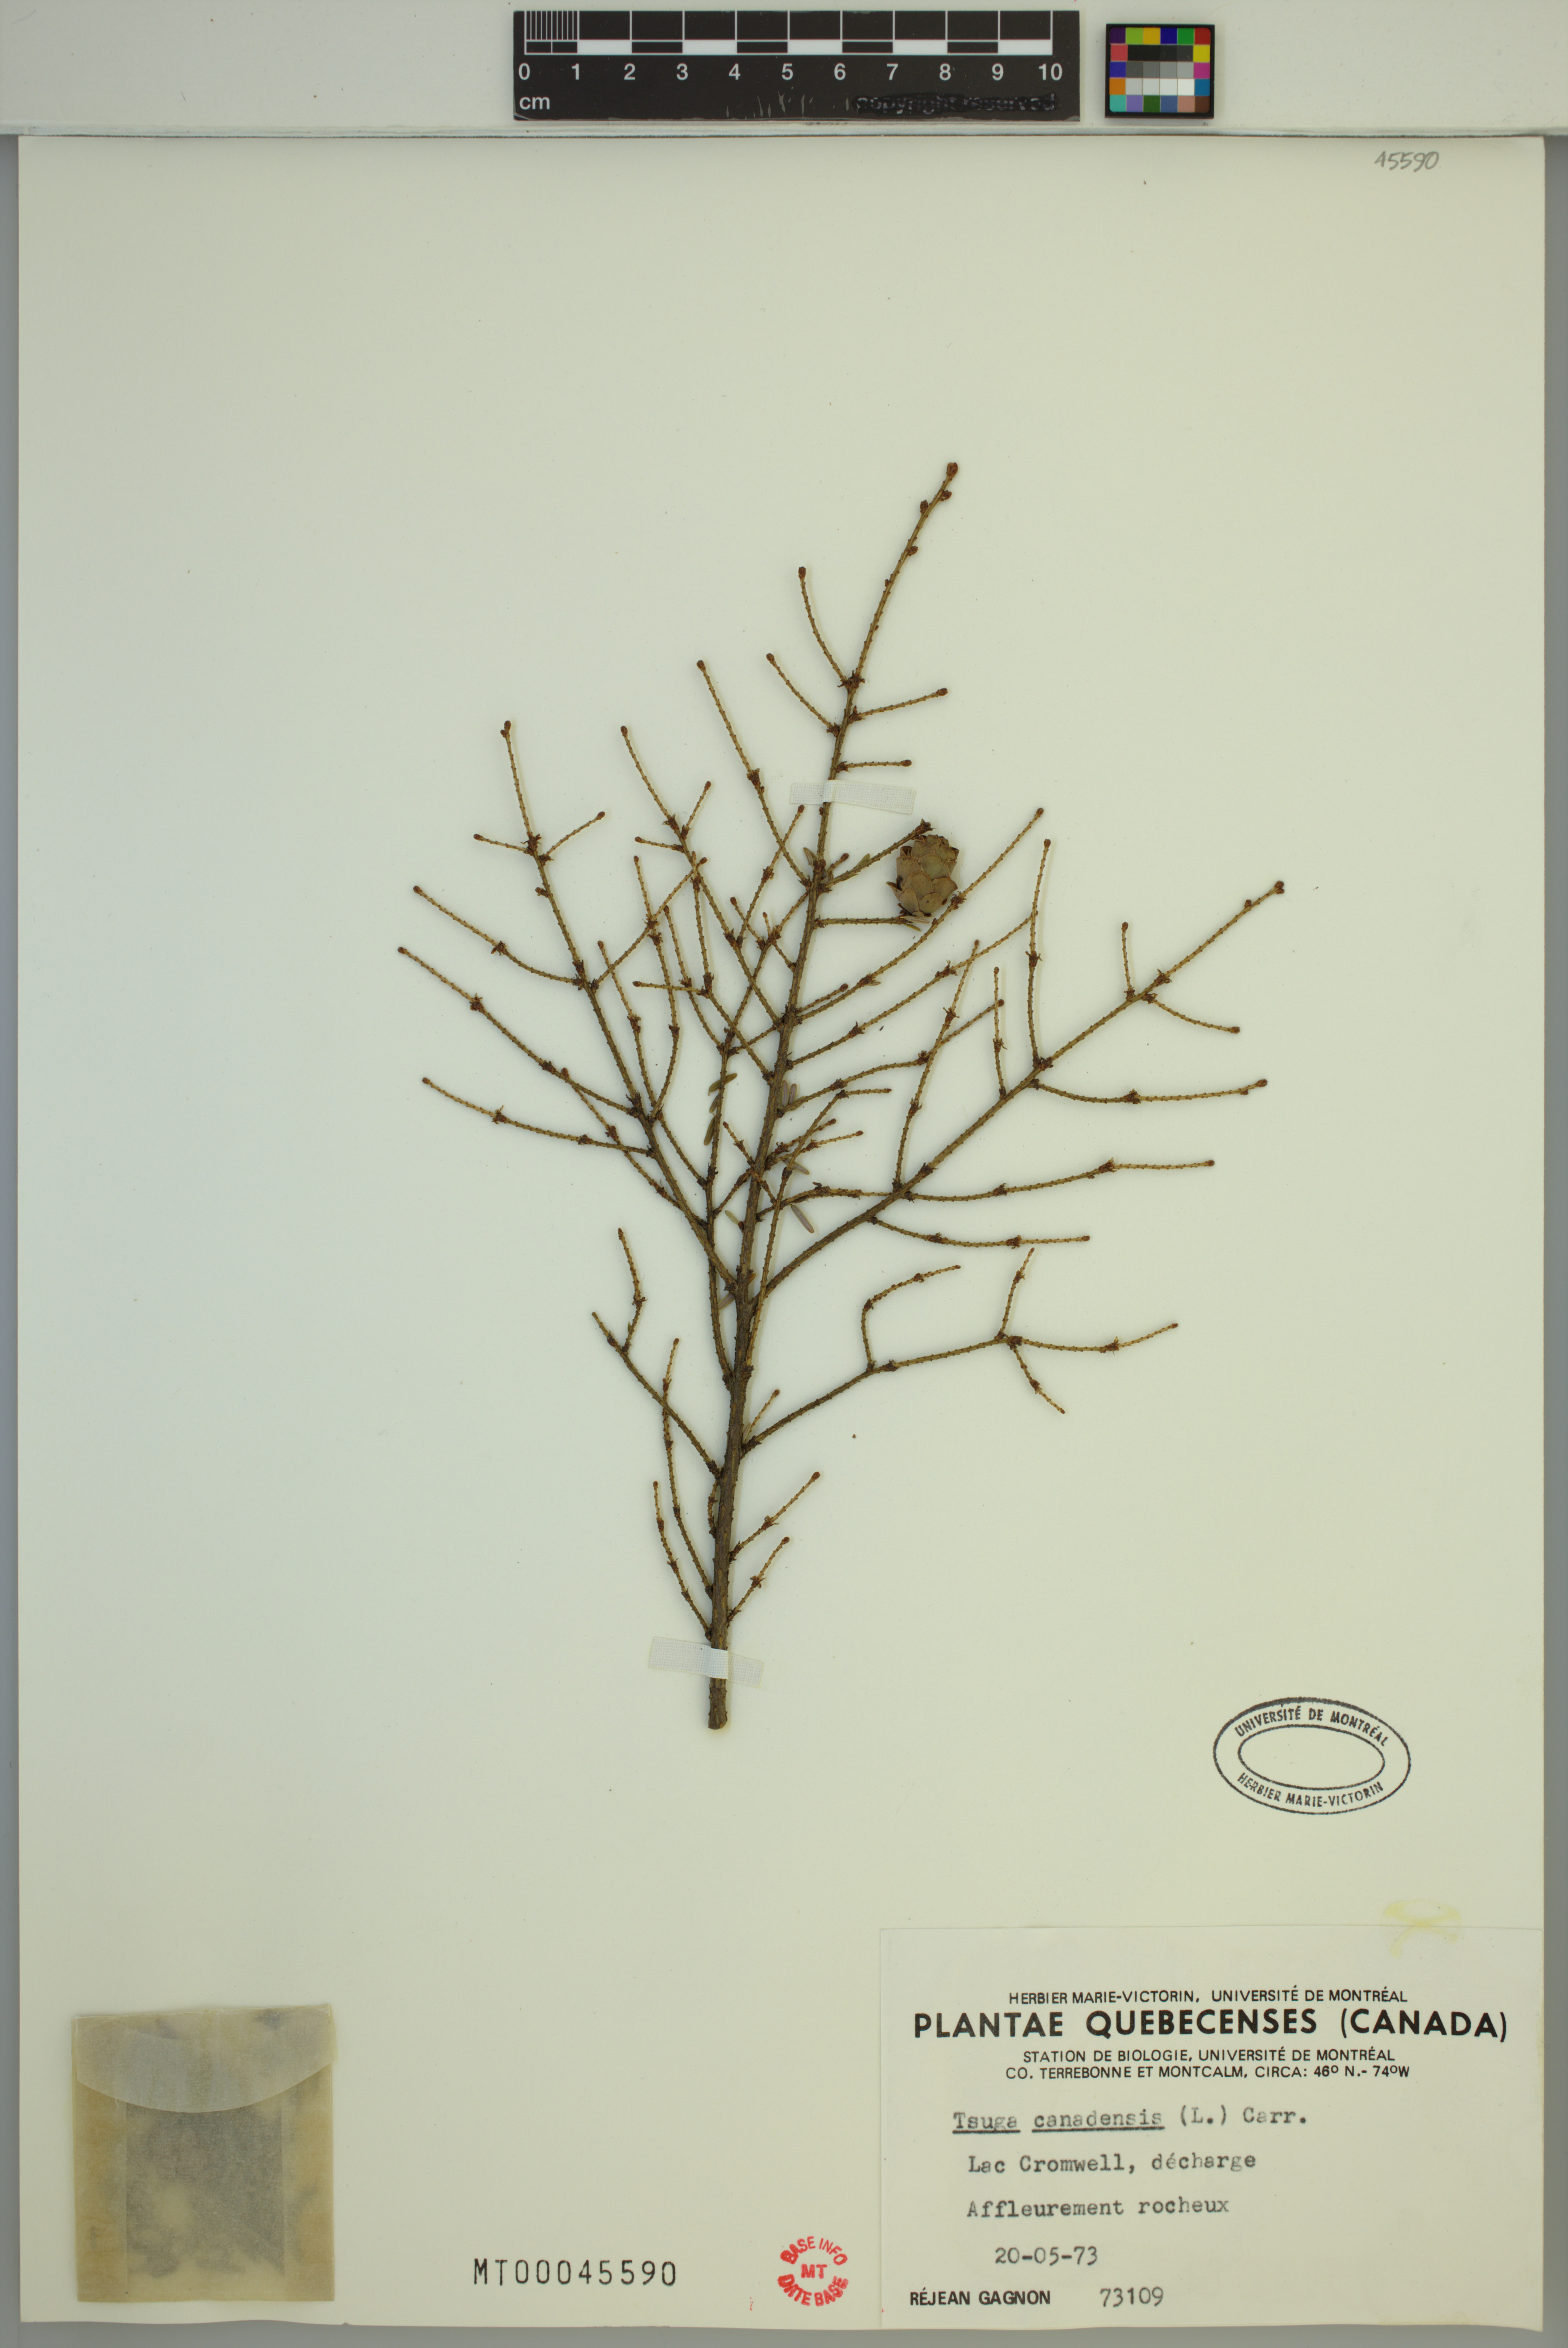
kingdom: Plantae
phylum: Tracheophyta
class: Pinopsida
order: Pinales
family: Pinaceae
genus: Tsuga
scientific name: Tsuga canadensis
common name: Eastern hemlock
